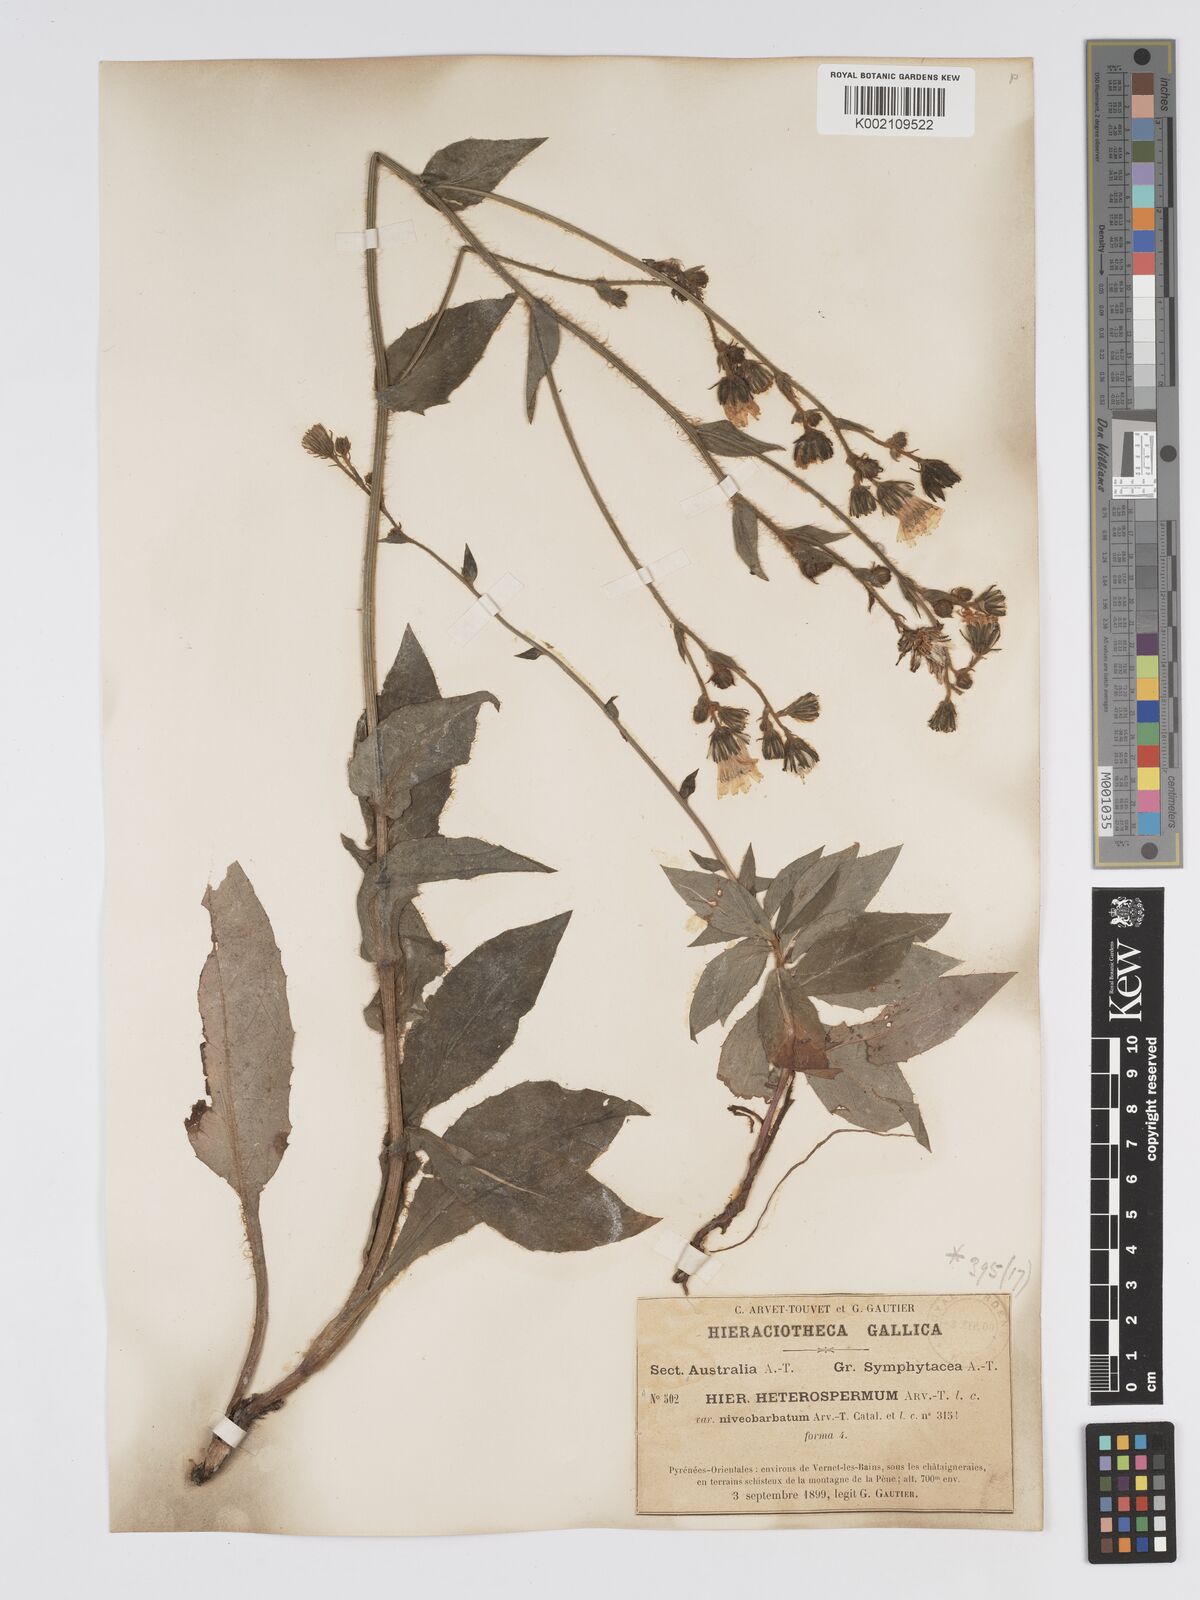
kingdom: Plantae
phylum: Tracheophyta
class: Magnoliopsida
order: Asterales
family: Asteraceae
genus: Hieracium
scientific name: Hieracium racemosum
